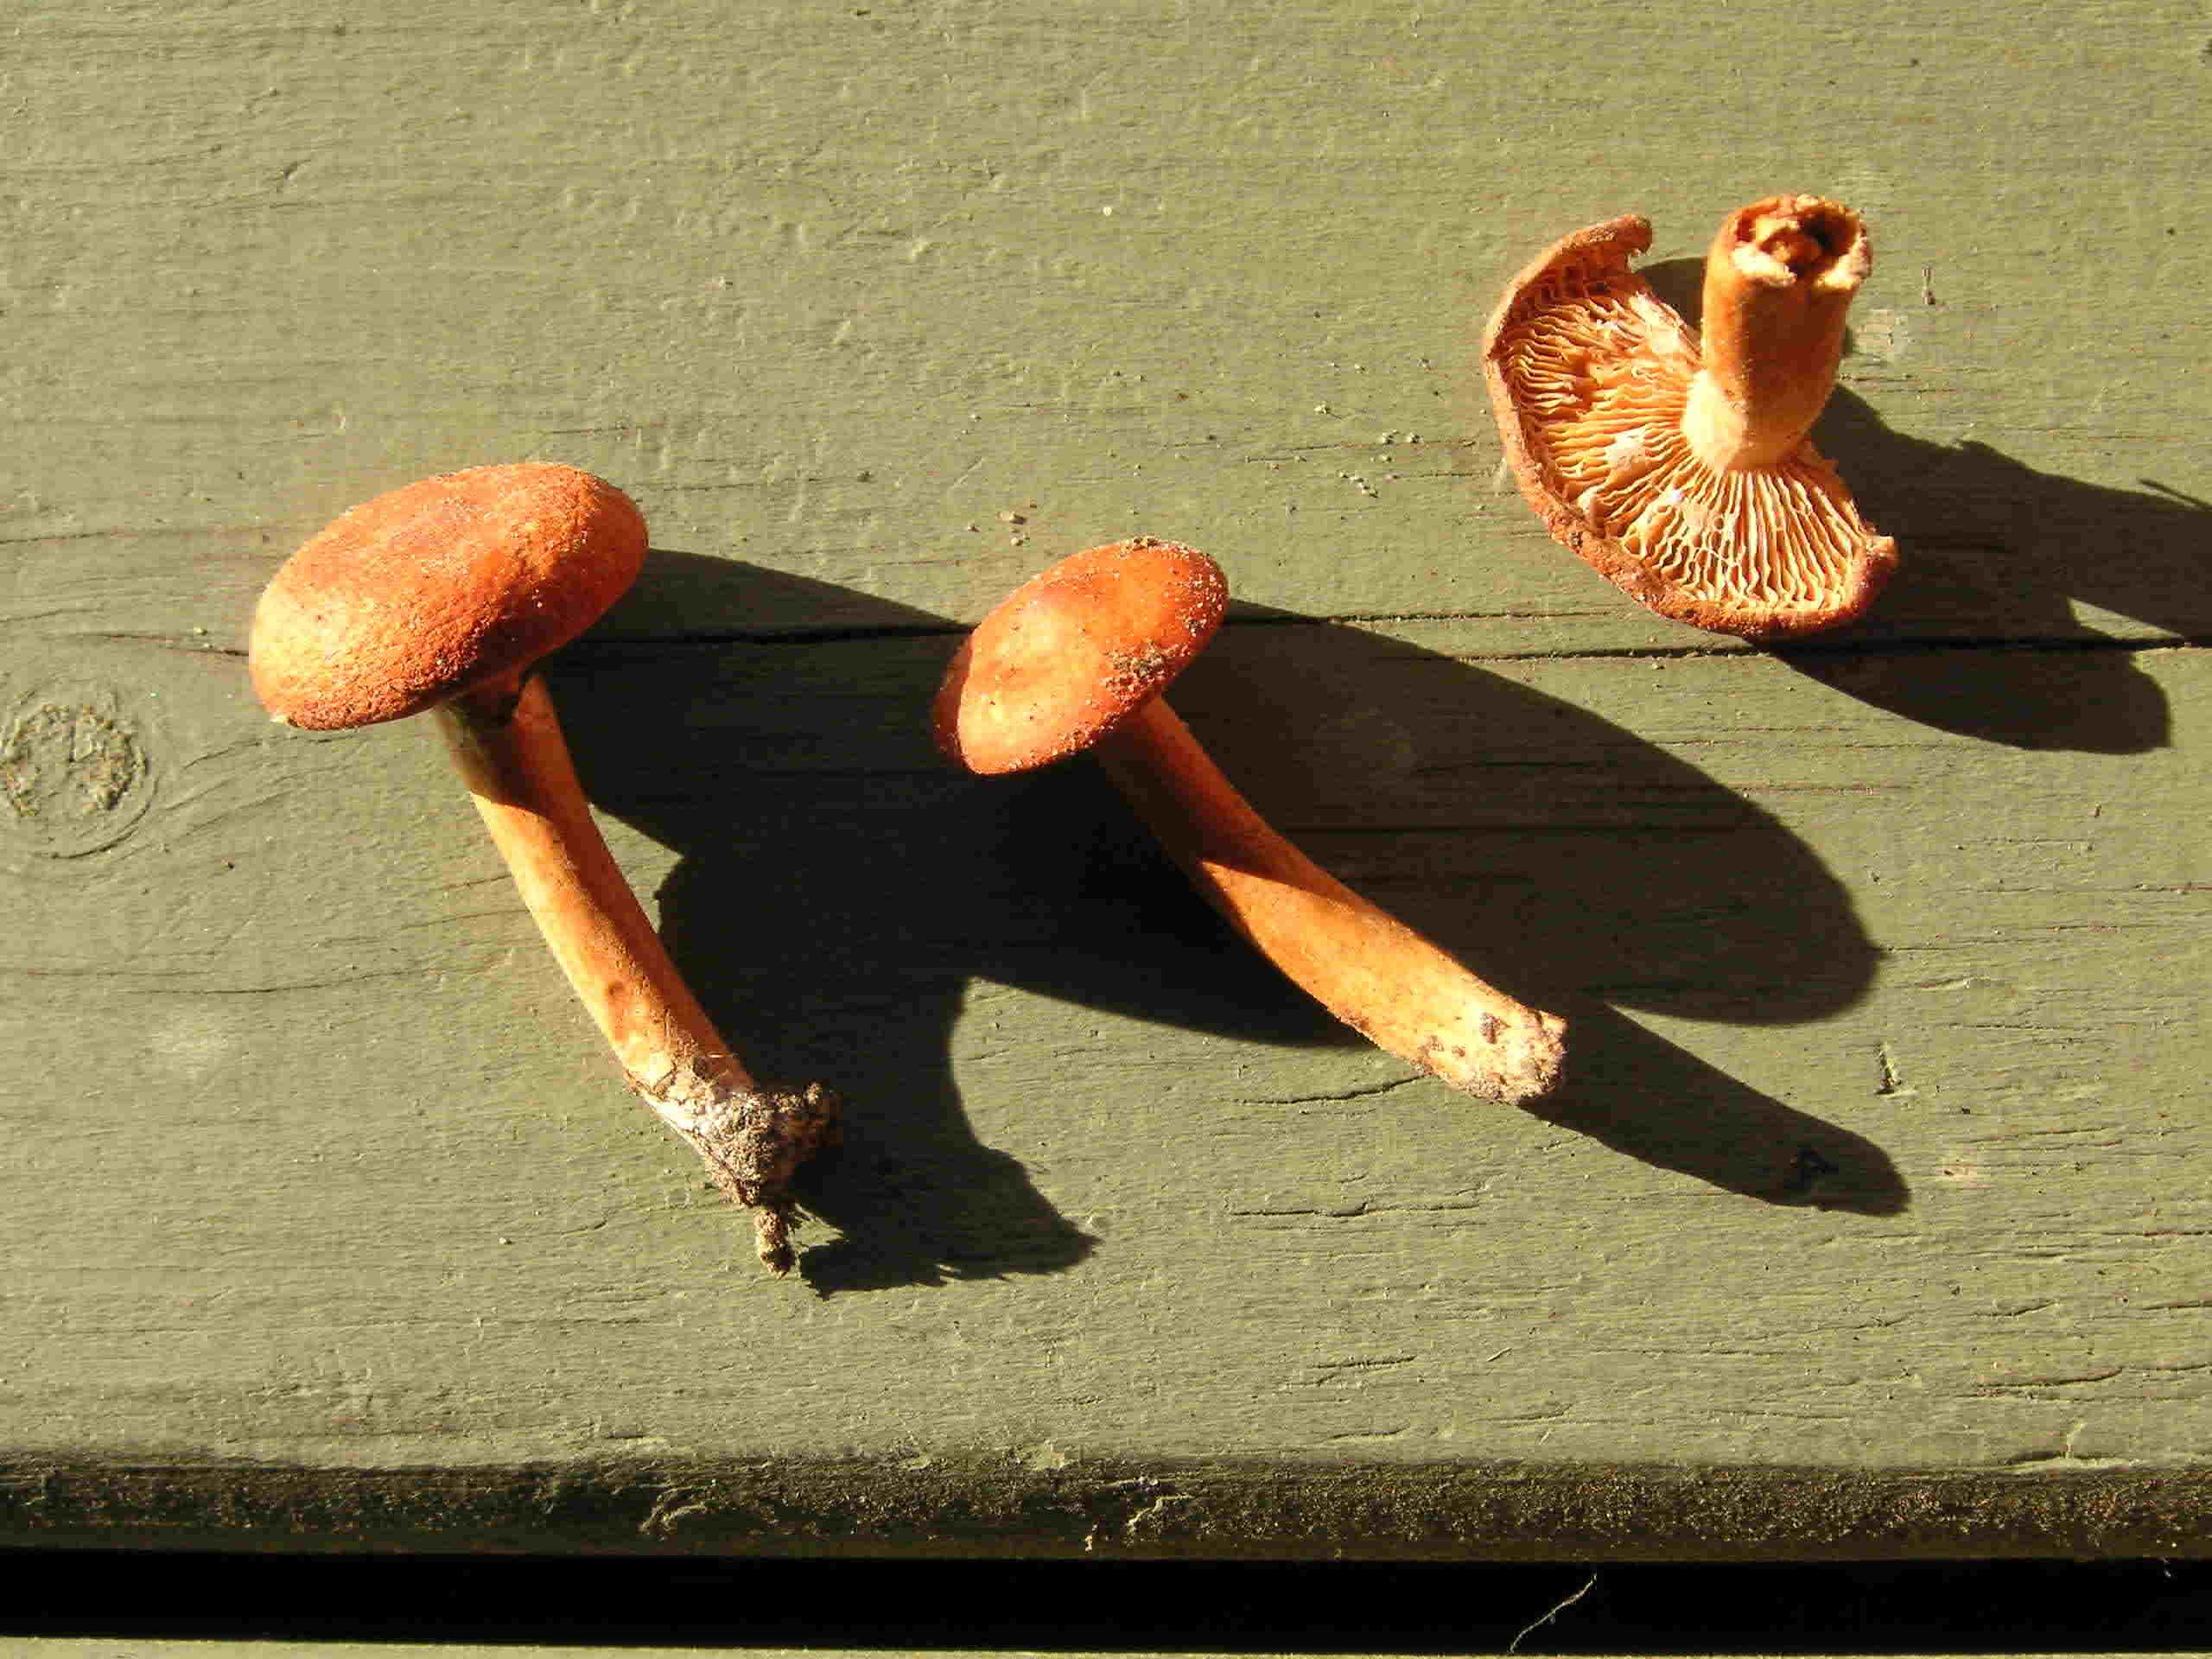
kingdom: Fungi
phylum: Basidiomycota
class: Agaricomycetes
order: Russulales
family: Russulaceae
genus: Lactarius
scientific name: Lactarius aurantiacus
